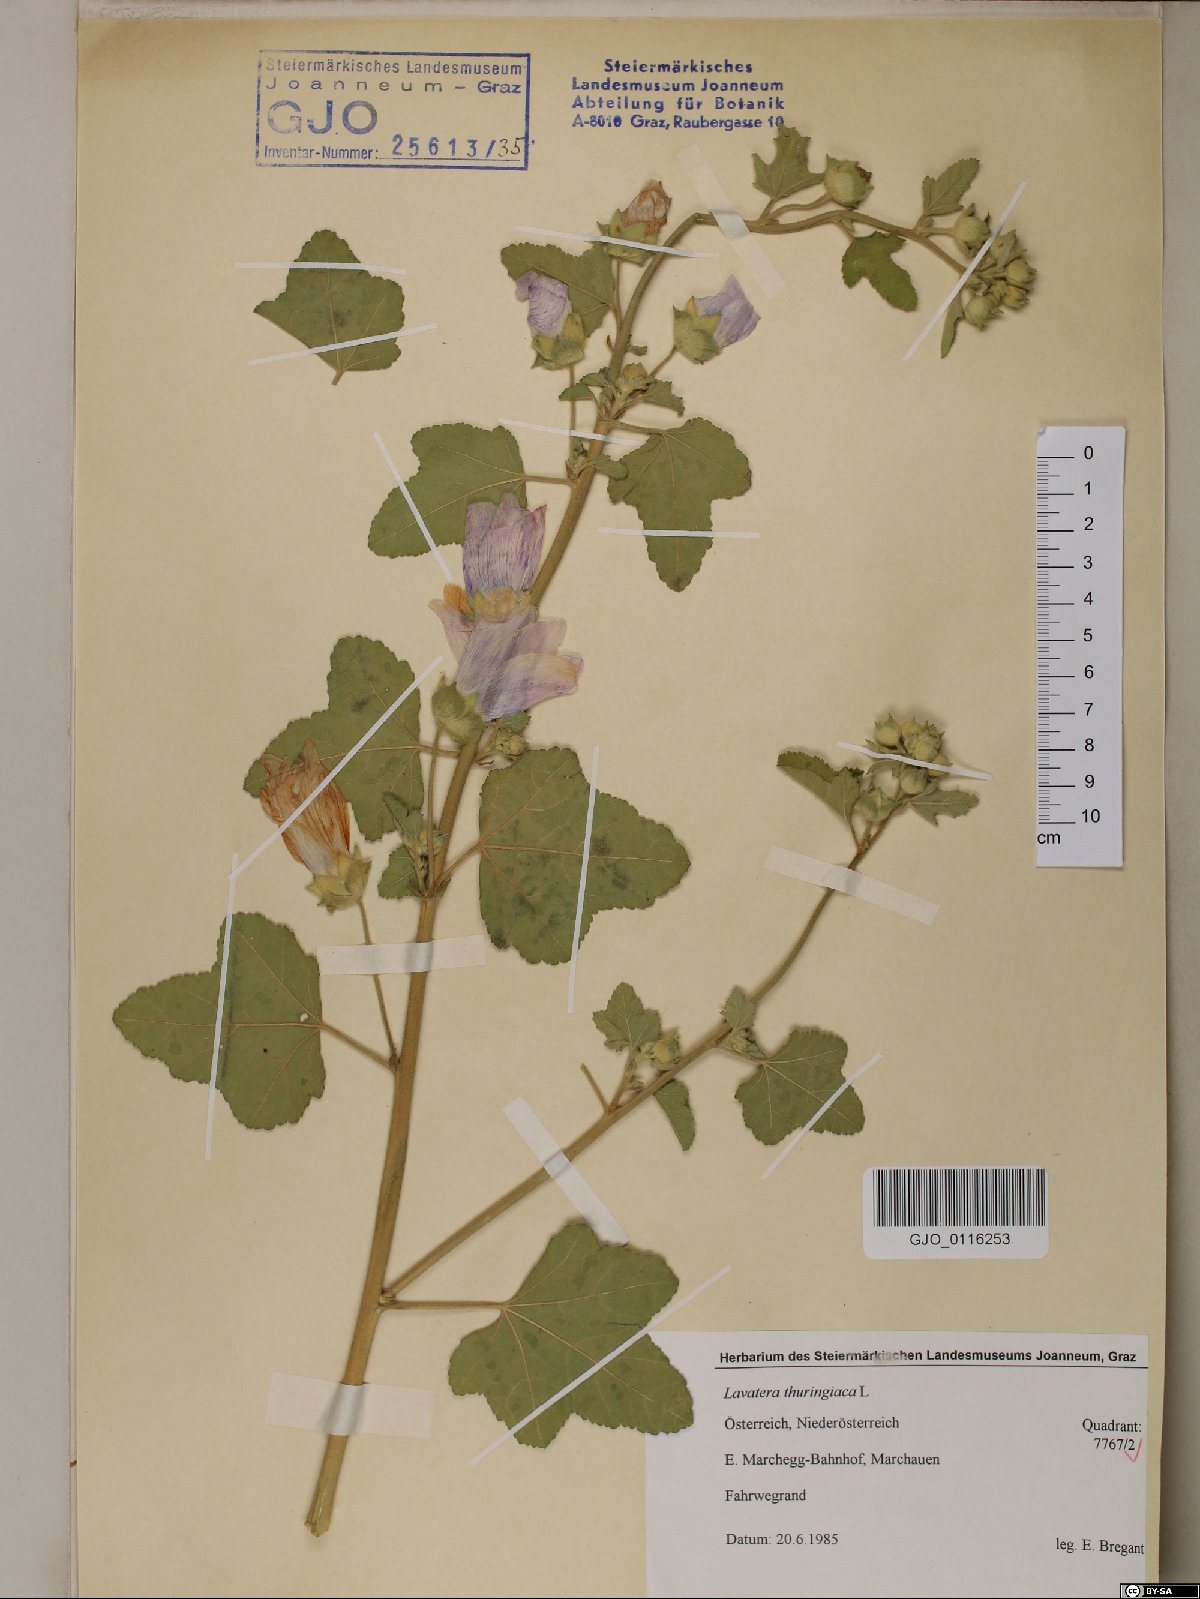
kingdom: Plantae
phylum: Tracheophyta
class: Magnoliopsida
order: Malvales
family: Malvaceae
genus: Malva
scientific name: Malva thuringiaca
